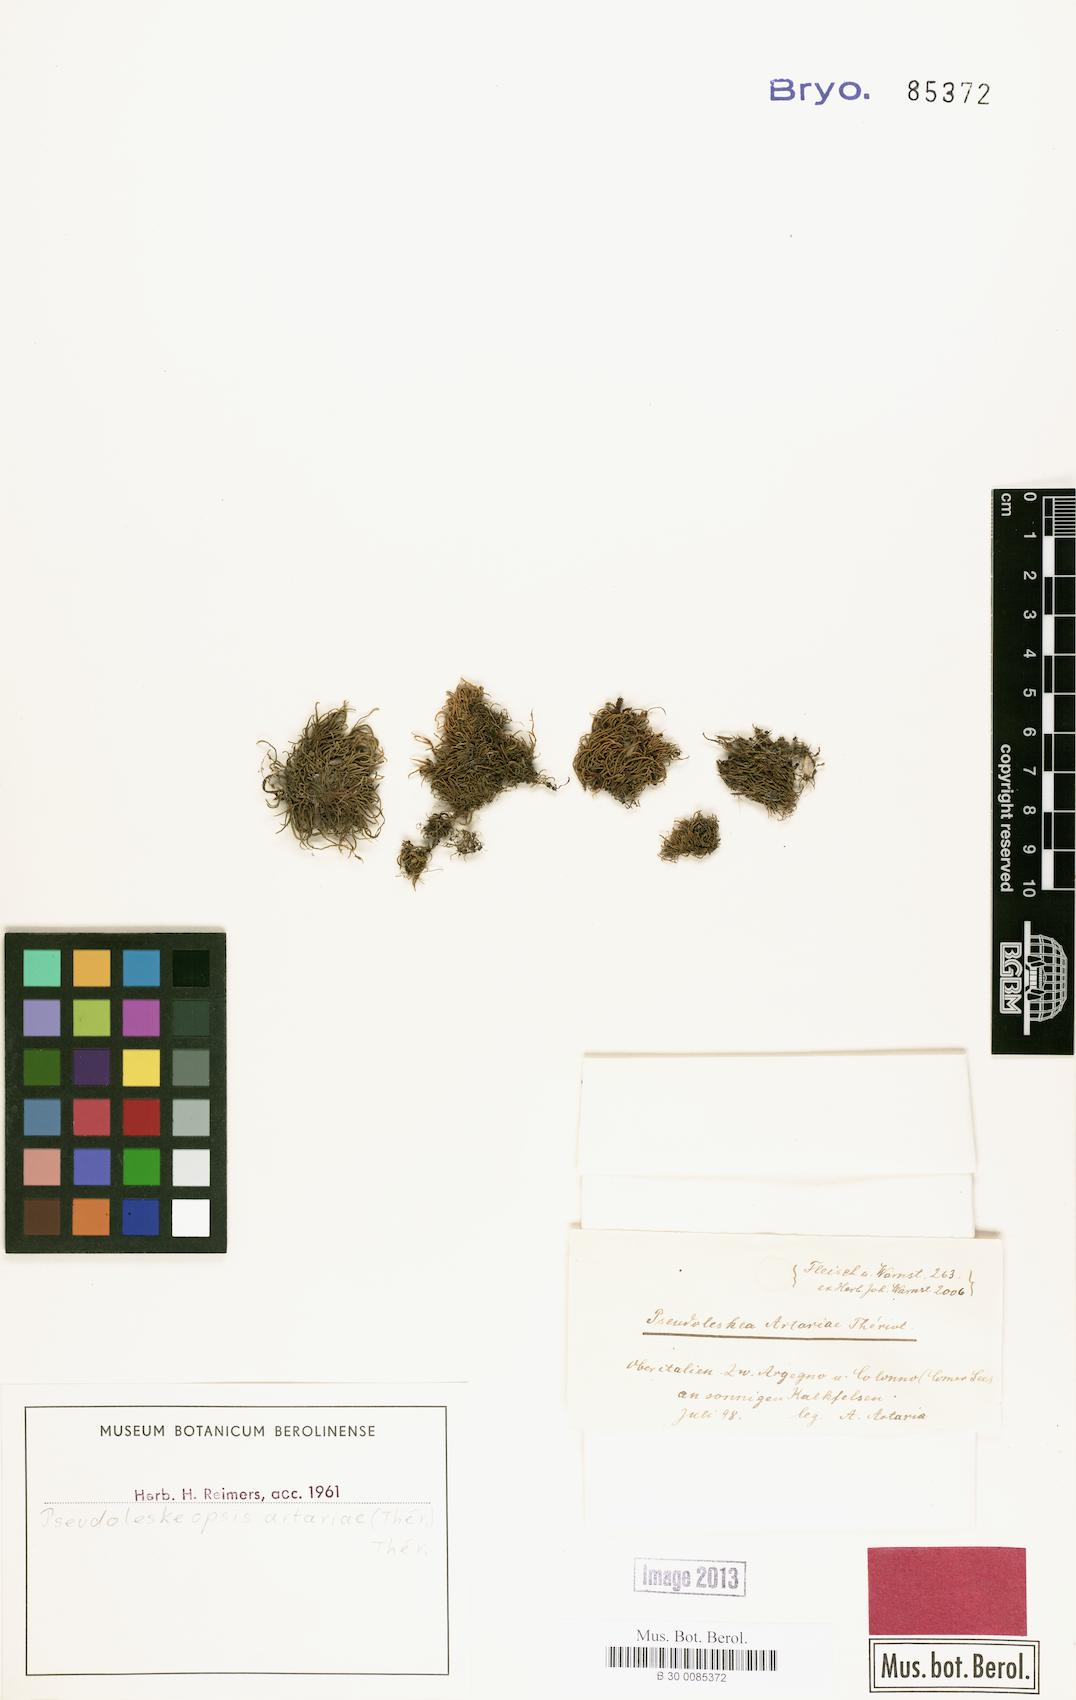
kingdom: Plantae
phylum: Bryophyta
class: Bryopsida
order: Hypnales
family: Leskeaceae
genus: Pseudoleskeopsis
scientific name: Pseudoleskeopsis artariae
